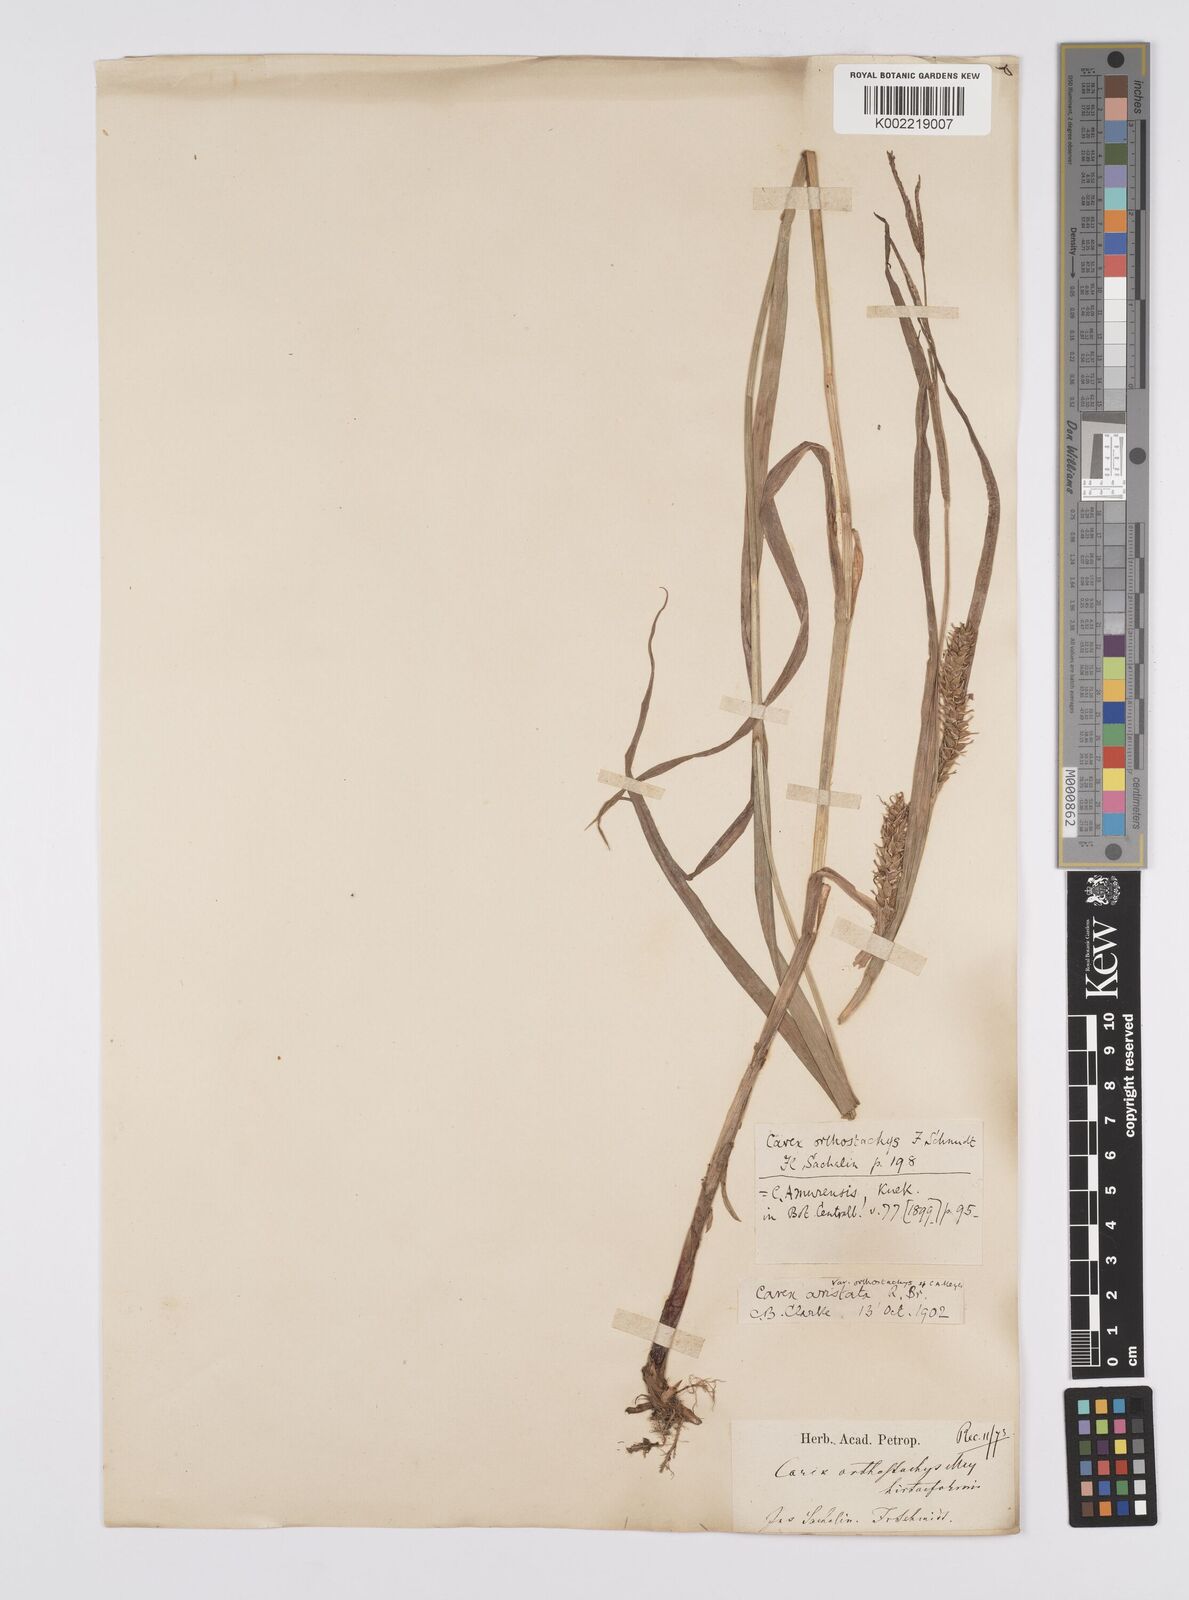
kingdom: Plantae
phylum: Tracheophyta
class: Liliopsida
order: Poales
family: Cyperaceae
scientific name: Cyperaceae
